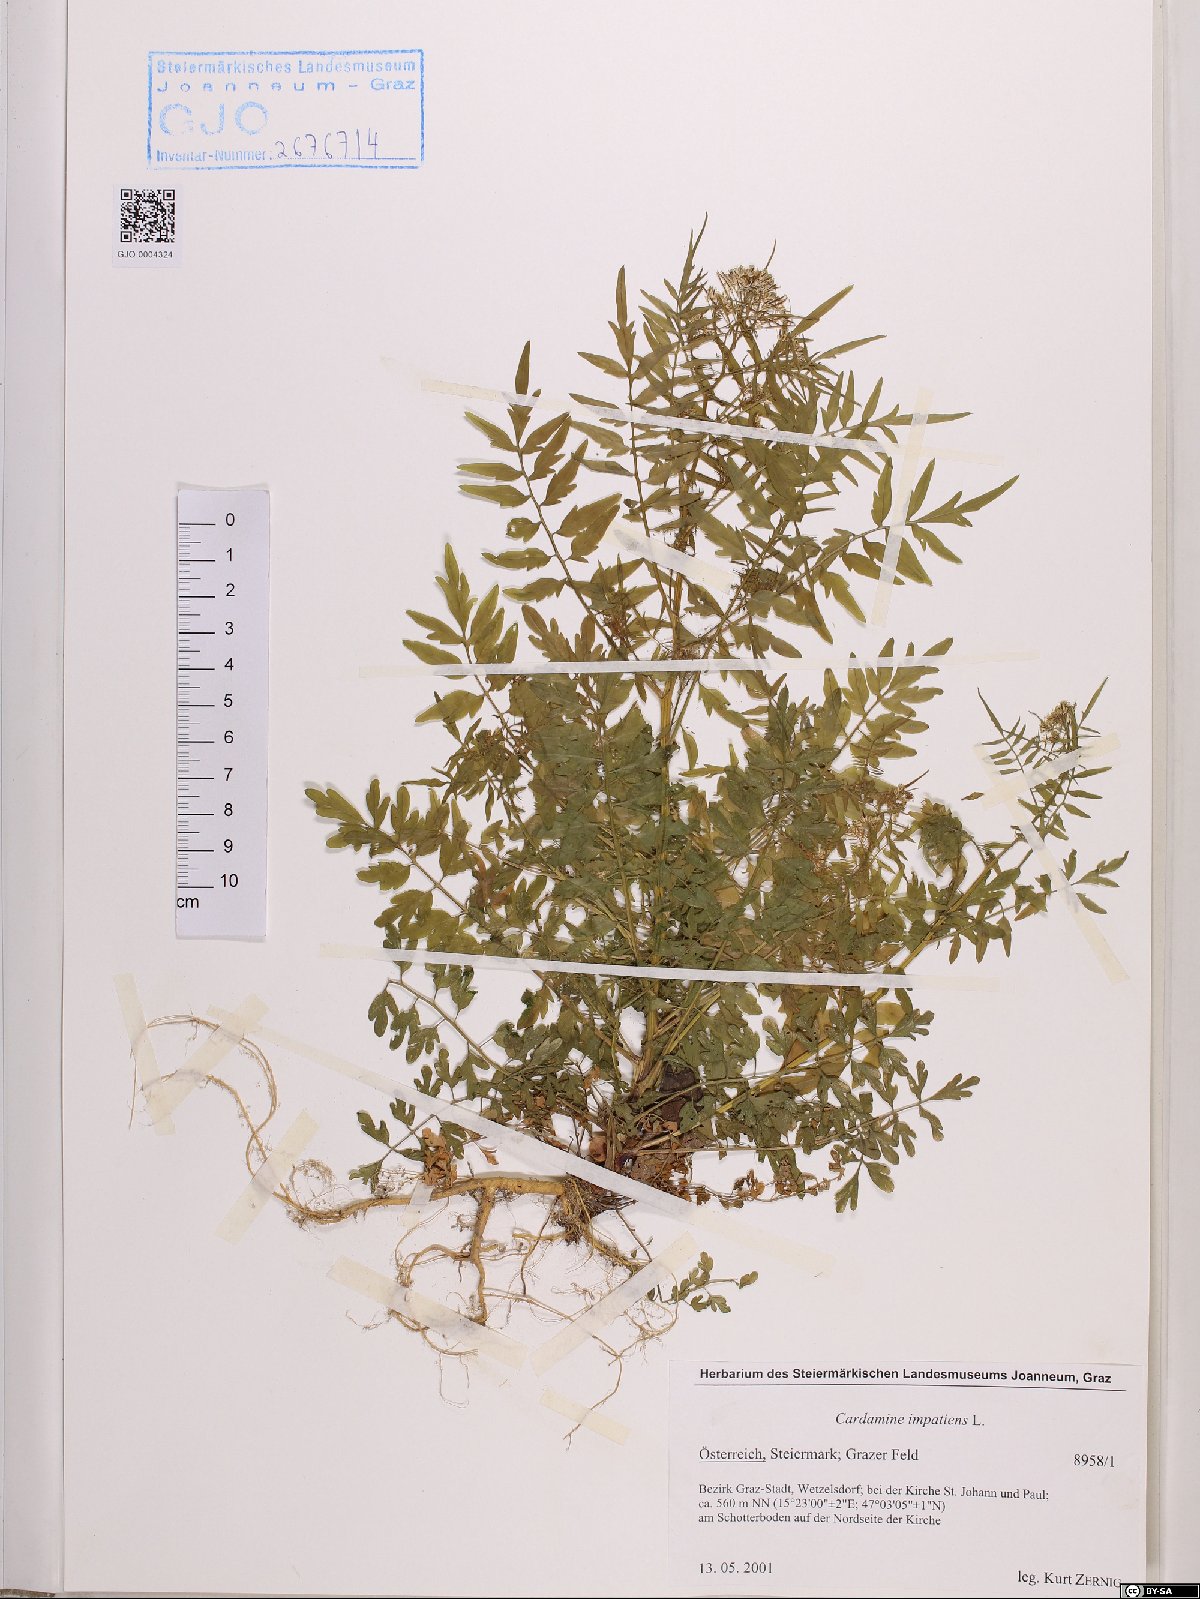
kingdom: Plantae
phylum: Tracheophyta
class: Magnoliopsida
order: Brassicales
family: Brassicaceae
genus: Cardamine
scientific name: Cardamine impatiens
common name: Narrow-leaved bitter-cress
